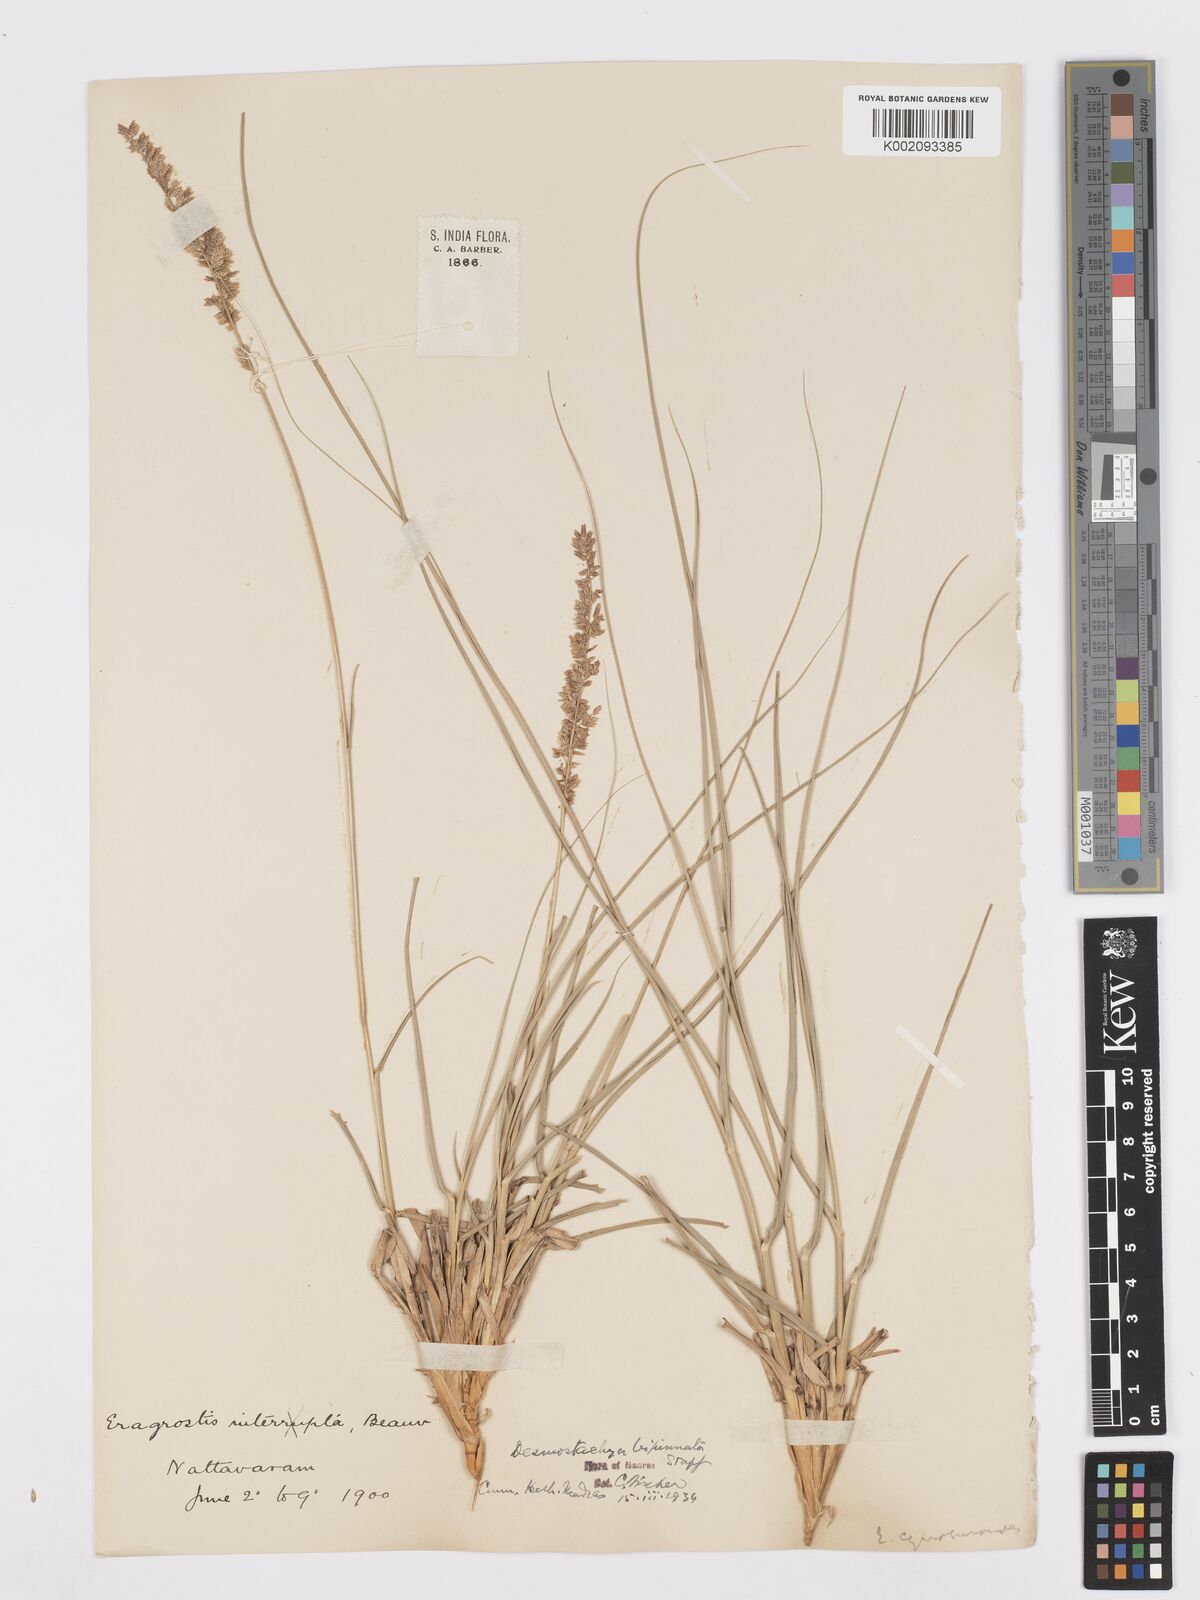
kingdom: Plantae
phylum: Tracheophyta
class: Liliopsida
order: Poales
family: Poaceae
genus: Desmostachya
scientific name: Desmostachya bipinnata
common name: Crowfoot grass
